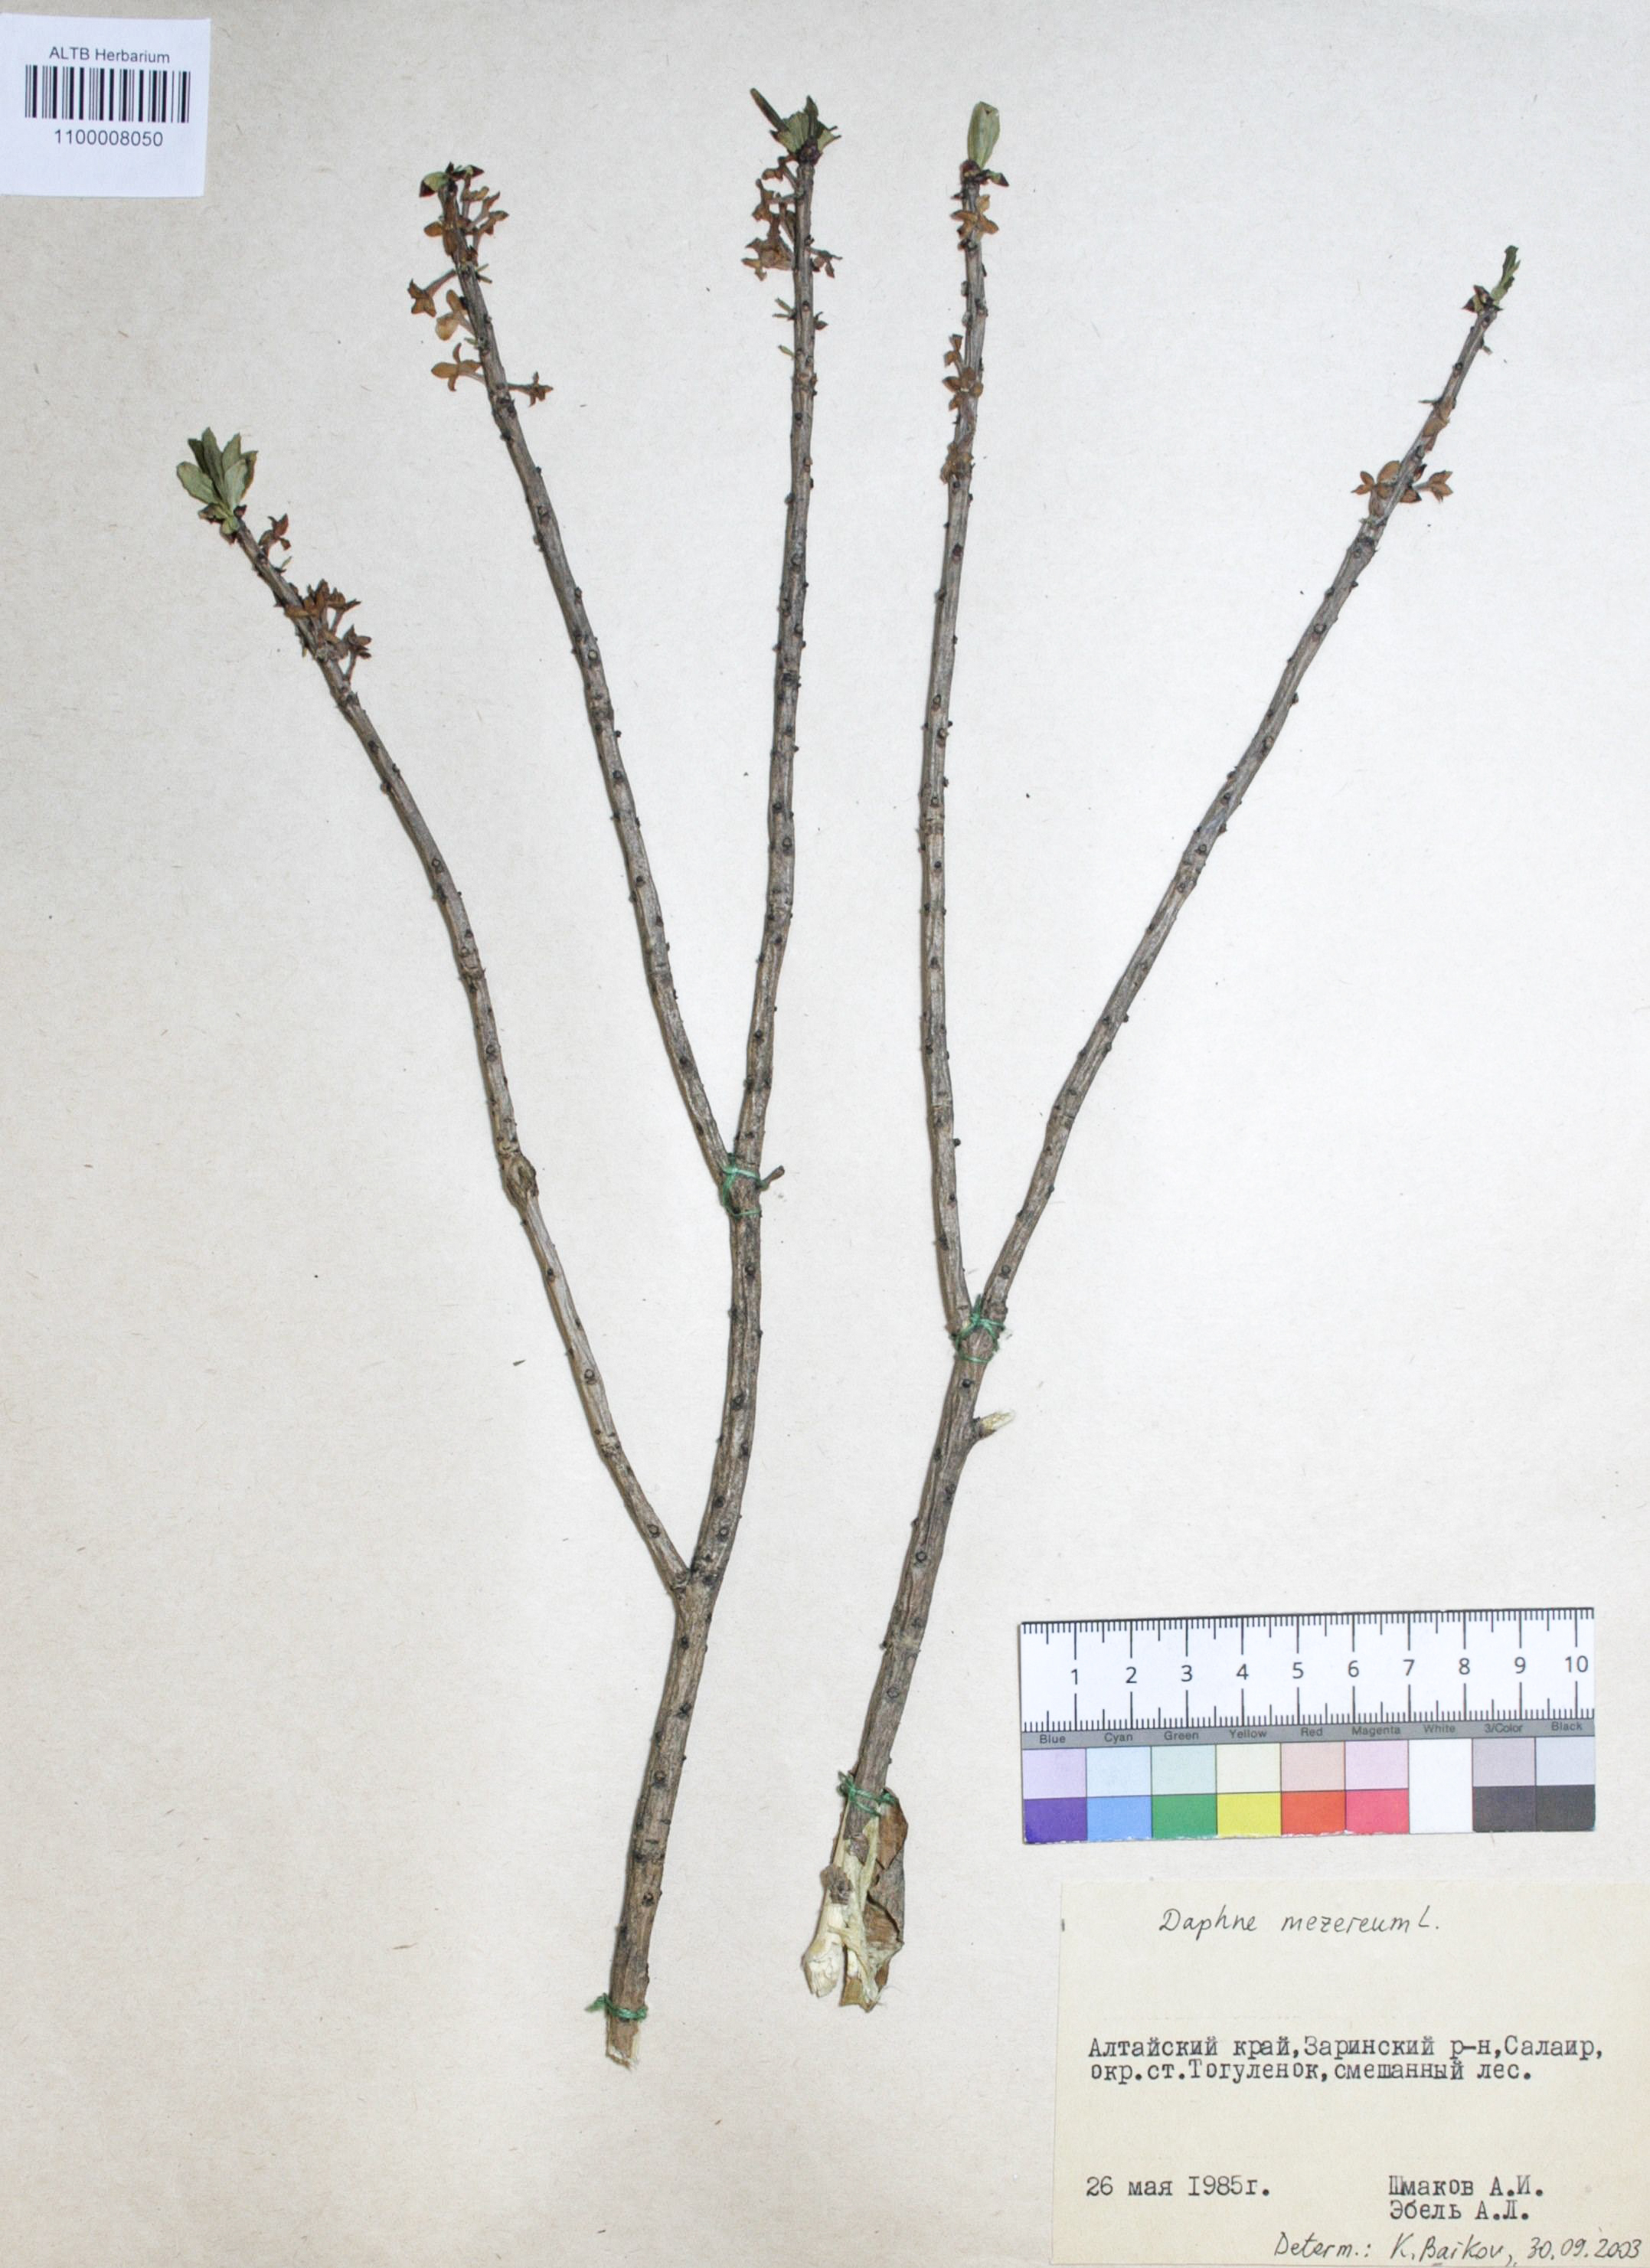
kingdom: Plantae
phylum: Tracheophyta
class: Magnoliopsida
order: Malvales
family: Thymelaeaceae
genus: Daphne
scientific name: Daphne mezereum
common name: Mezereon
